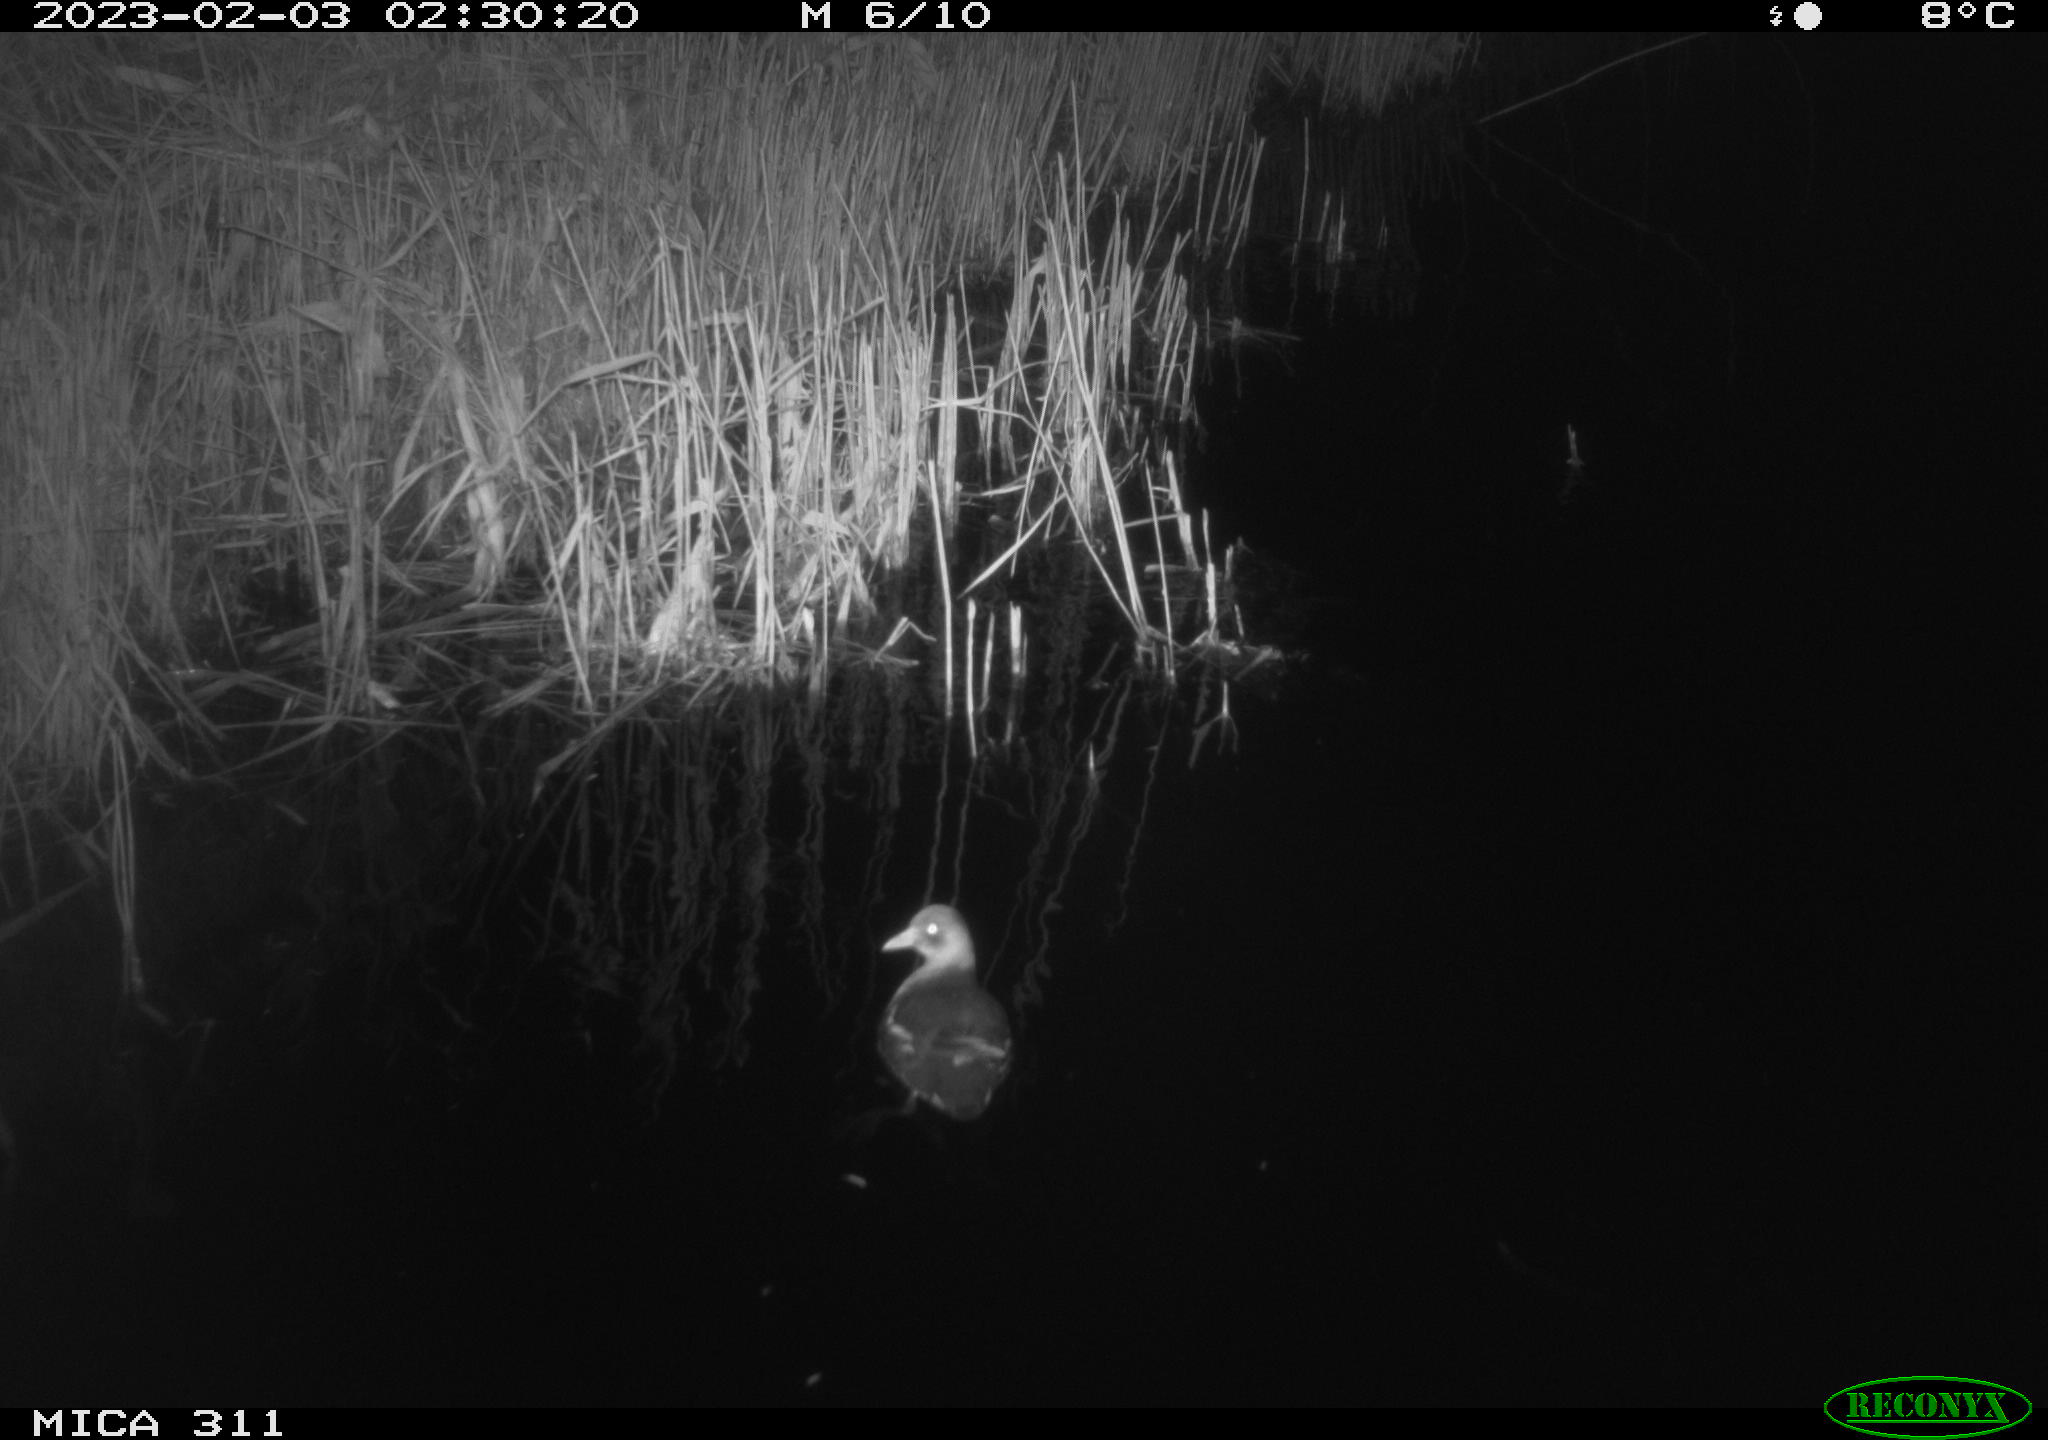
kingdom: Animalia
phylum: Chordata
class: Aves
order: Gruiformes
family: Rallidae
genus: Gallinula
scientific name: Gallinula chloropus
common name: Common moorhen
